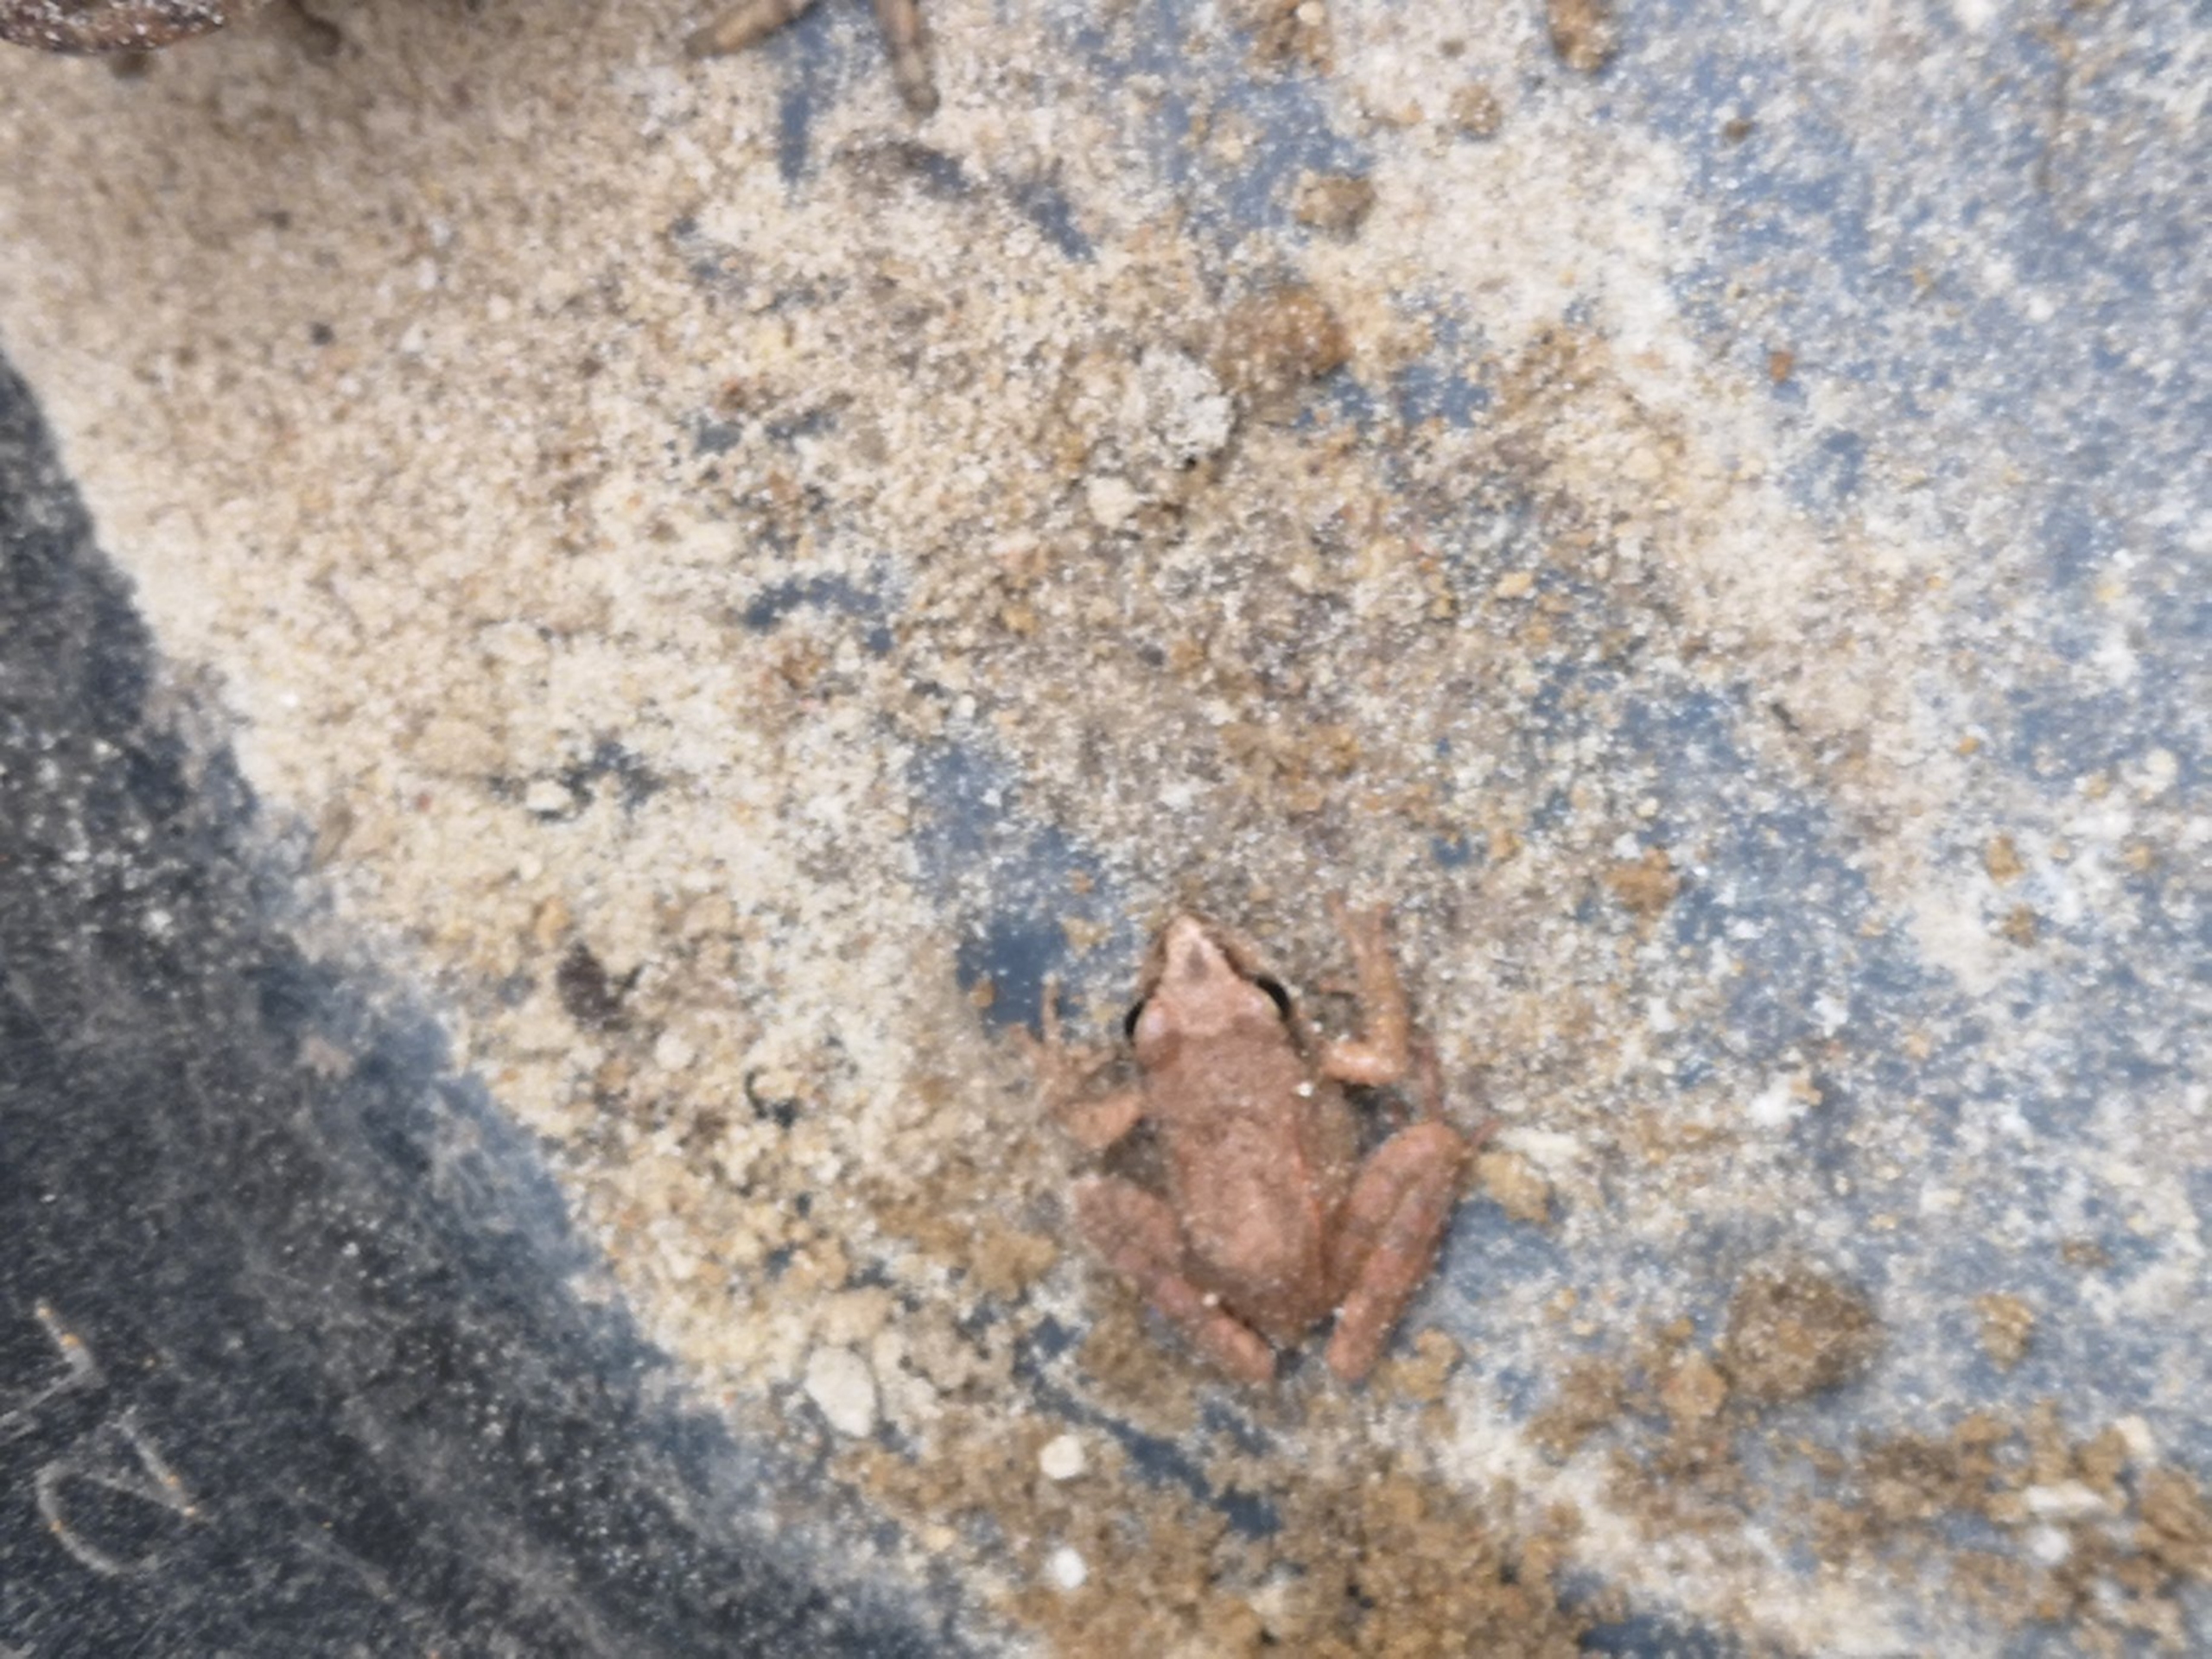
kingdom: Animalia
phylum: Chordata
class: Amphibia
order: Anura
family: Ranidae
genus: Rana
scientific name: Rana dalmatina
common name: Springfrø
